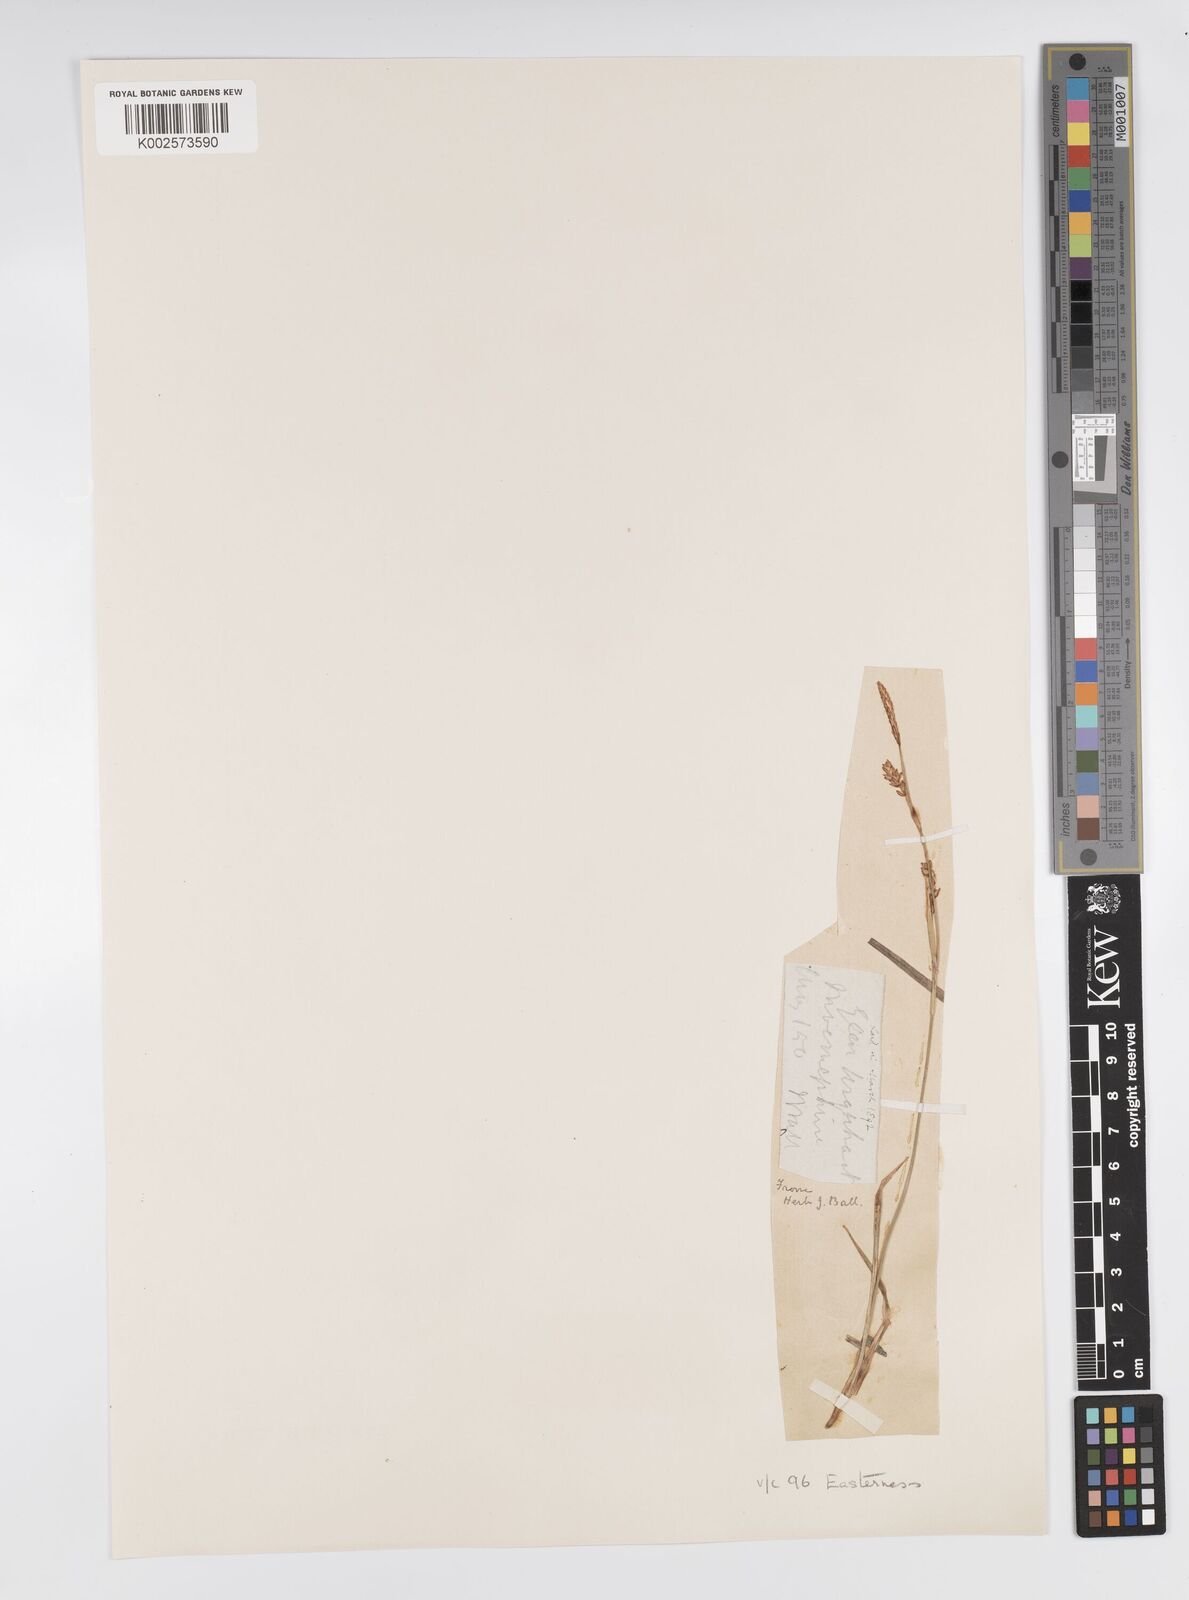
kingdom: Plantae
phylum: Tracheophyta
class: Liliopsida
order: Poales
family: Cyperaceae
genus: Carex
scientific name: Carex panicea
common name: Carnation sedge
